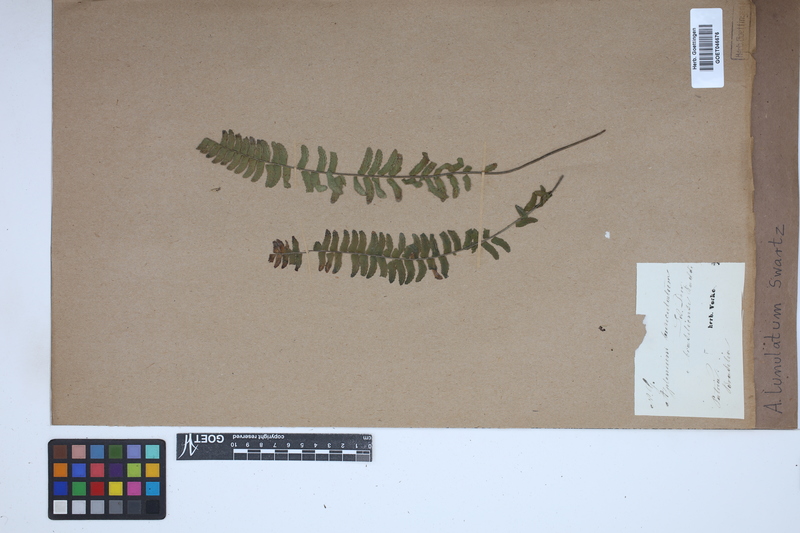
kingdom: Plantae
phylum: Tracheophyta
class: Polypodiopsida
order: Polypodiales
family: Aspleniaceae
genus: Asplenium
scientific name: Asplenium lunulatum
